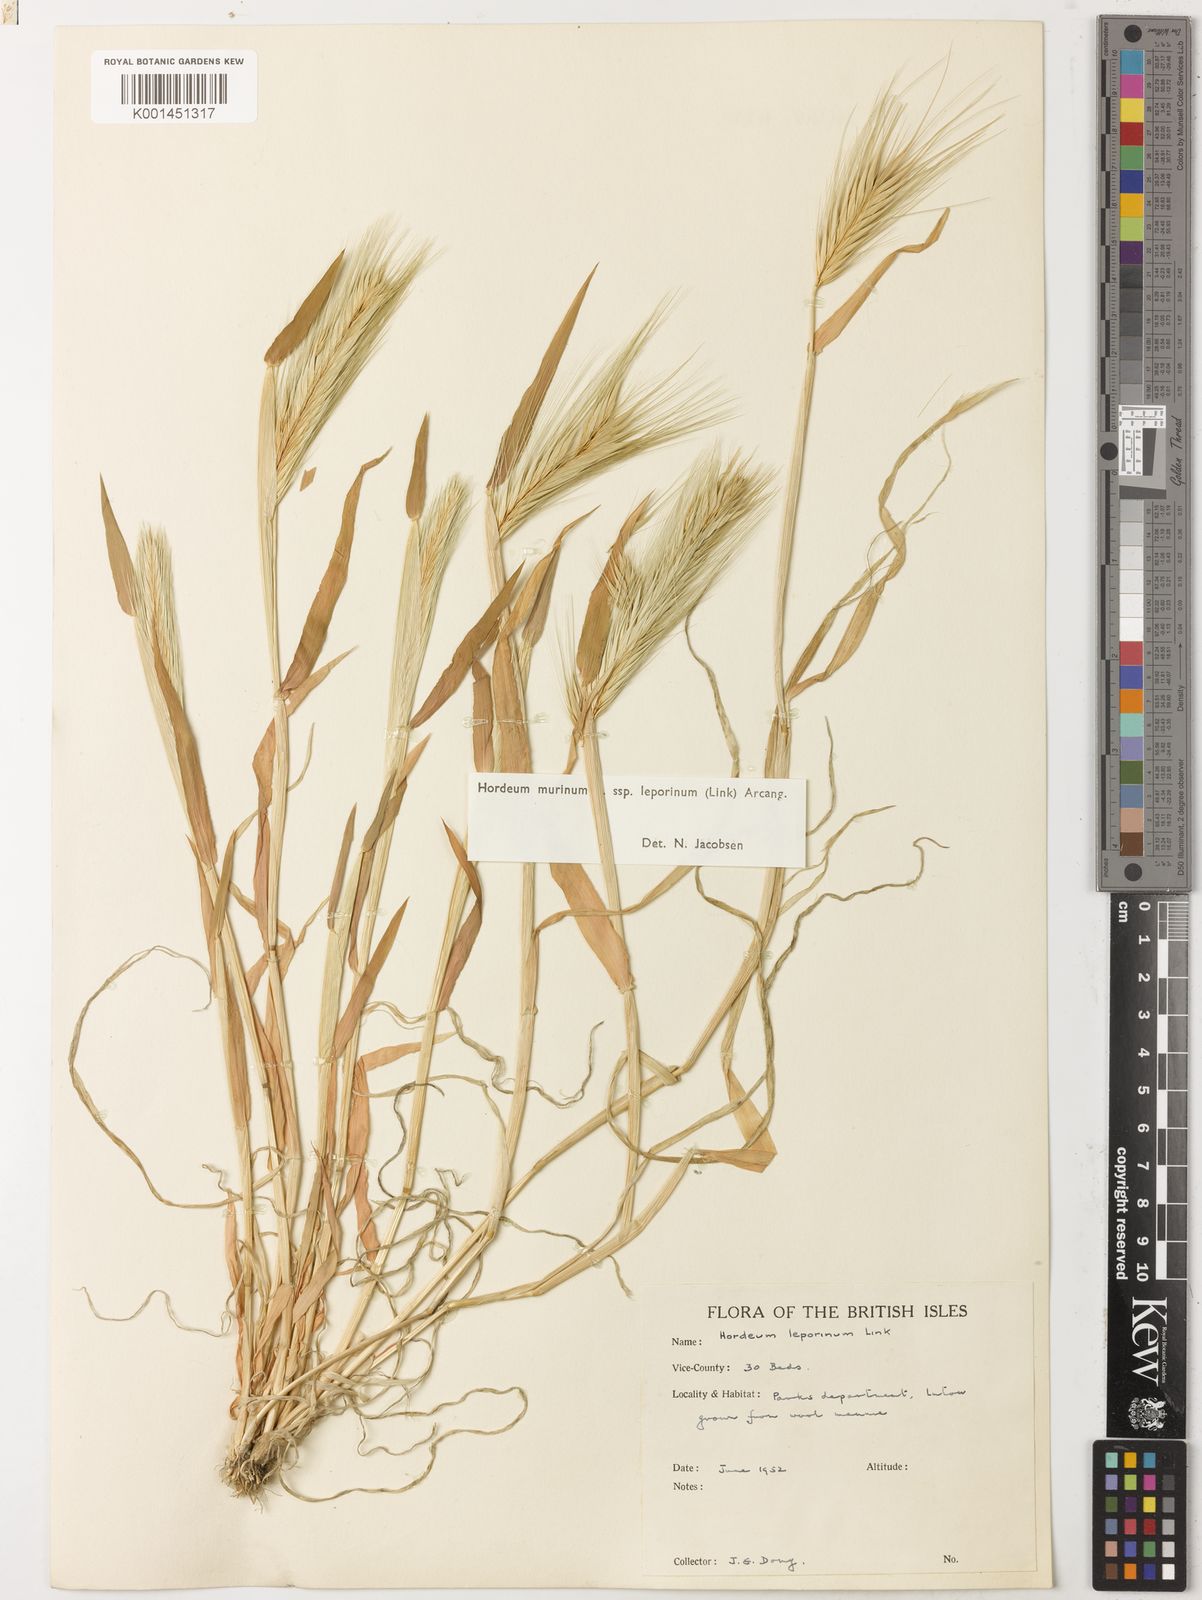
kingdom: Plantae
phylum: Tracheophyta
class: Liliopsida
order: Poales
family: Poaceae
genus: Hordeum
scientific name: Hordeum murinum
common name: Wall barley
